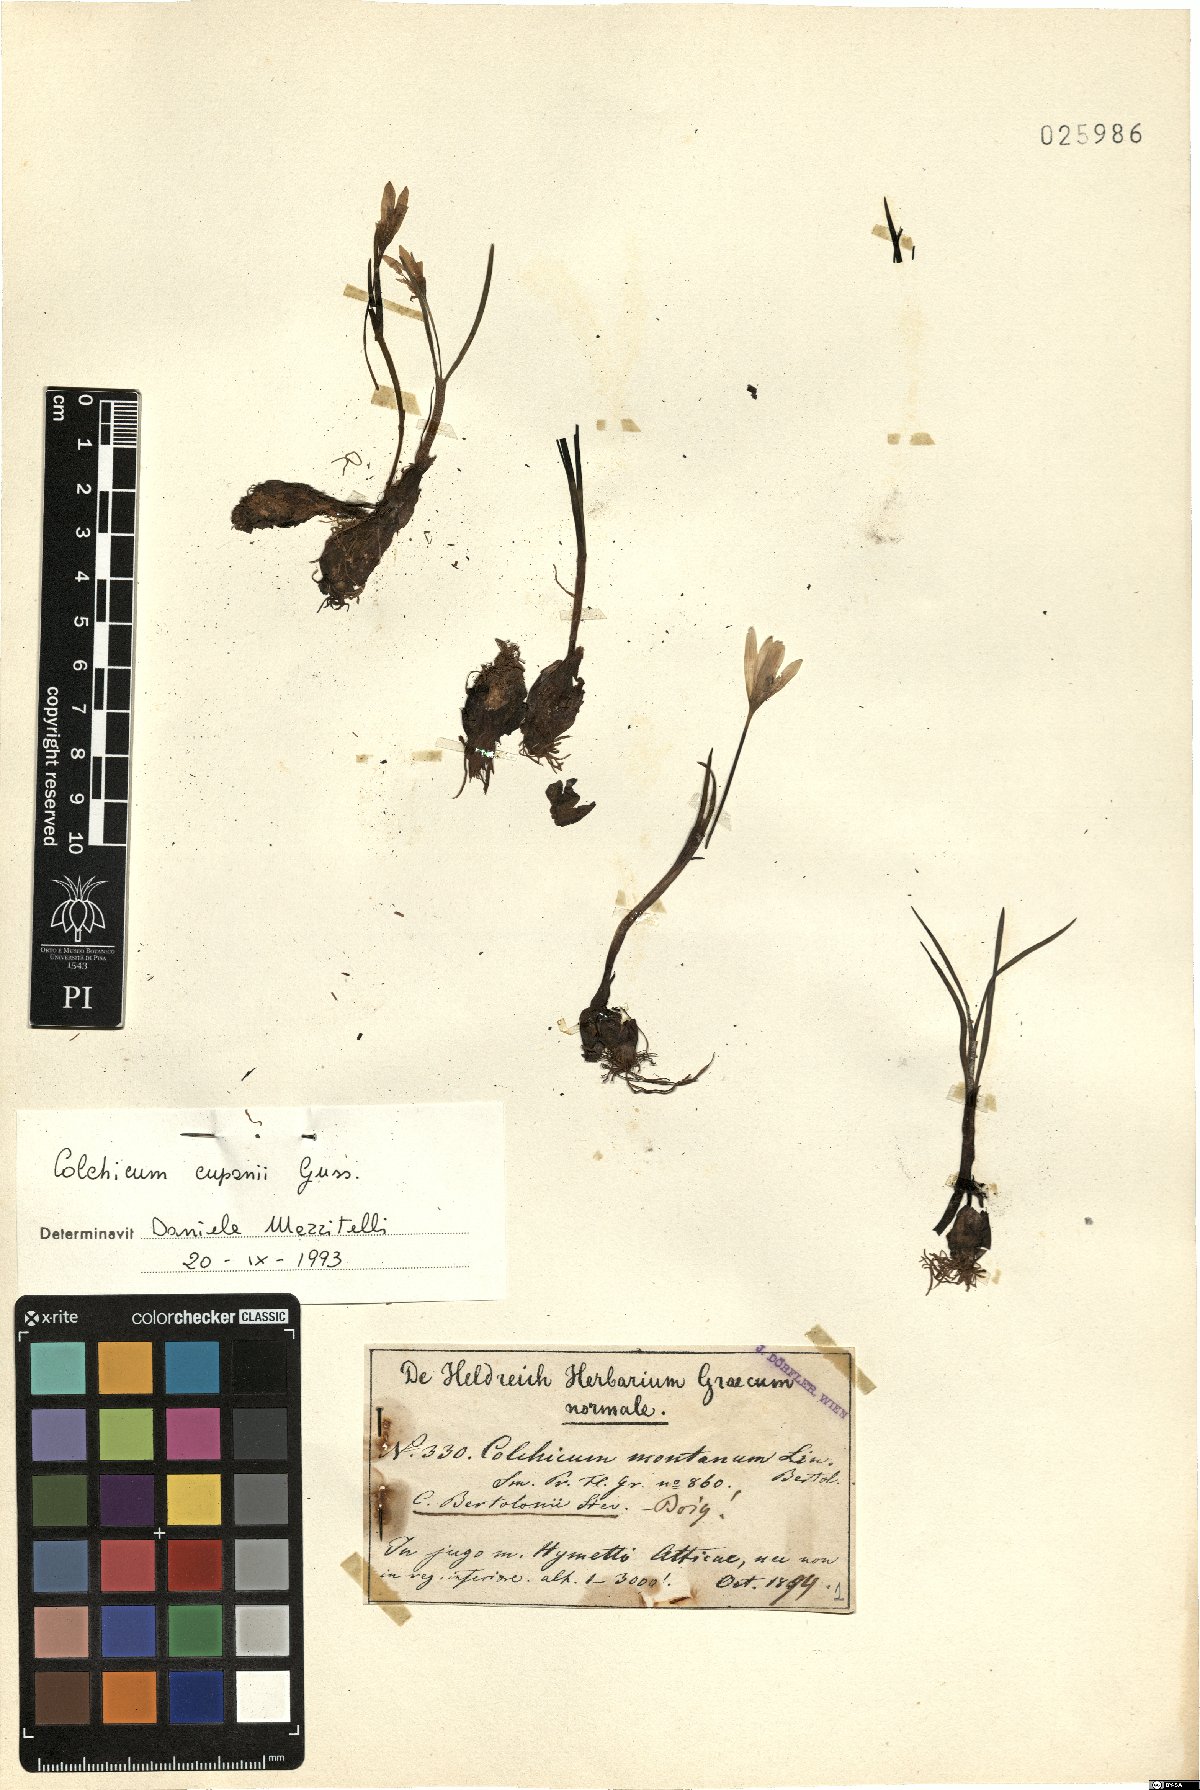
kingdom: Plantae
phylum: Tracheophyta
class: Liliopsida
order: Liliales
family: Colchicaceae
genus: Colchicum
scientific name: Colchicum cupanii
